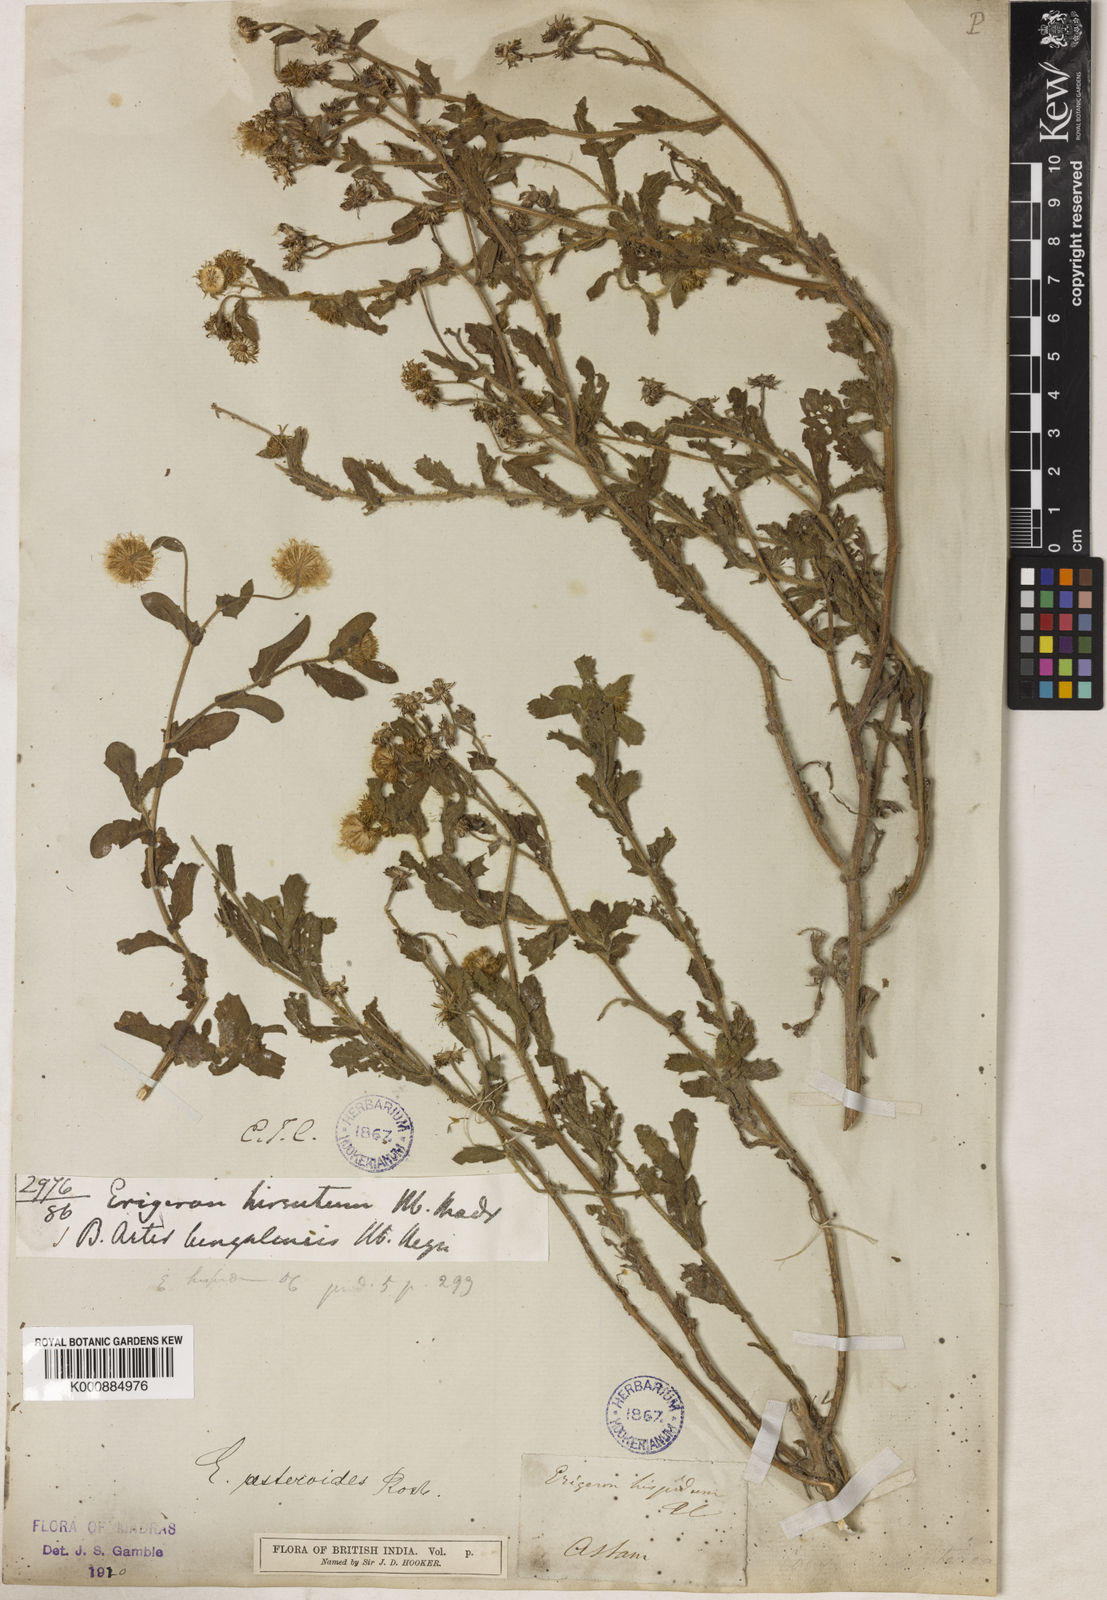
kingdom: Plantae
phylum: Tracheophyta
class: Magnoliopsida
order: Asterales
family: Asteraceae
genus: Blumea
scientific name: Blumea obliqua
